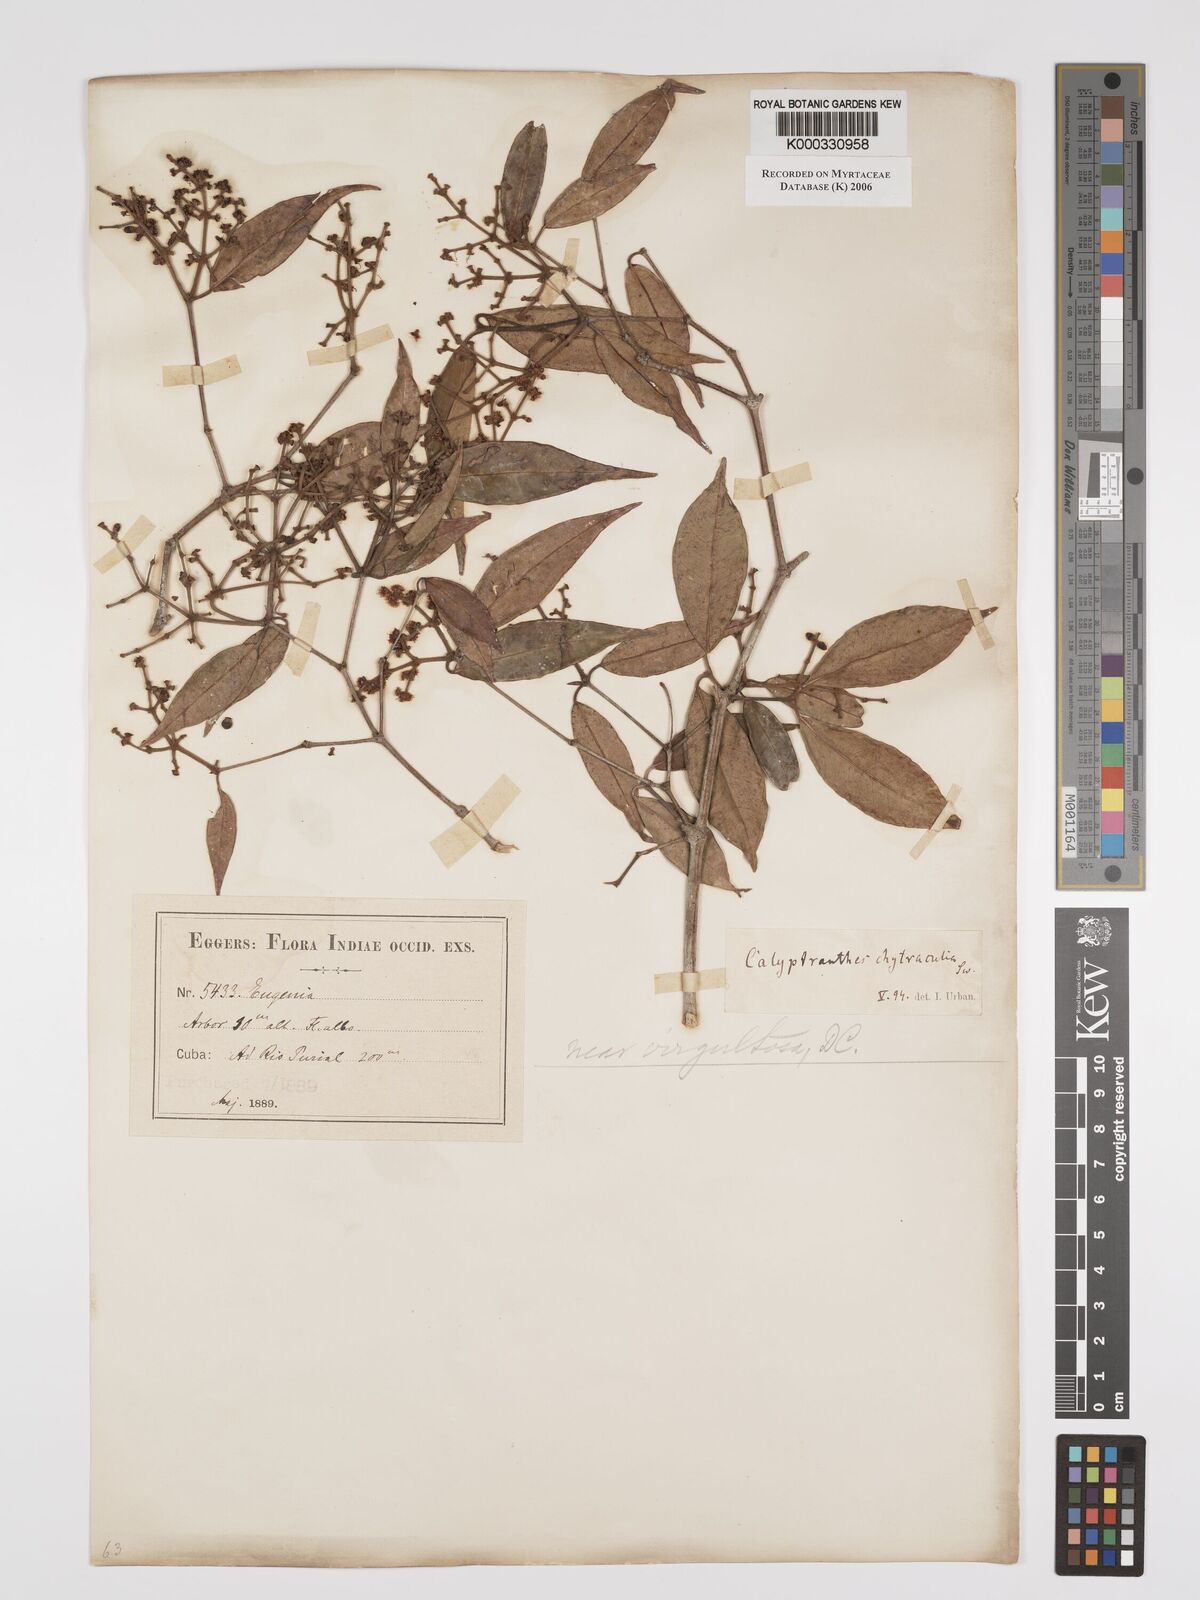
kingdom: Plantae
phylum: Tracheophyta
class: Magnoliopsida
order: Myrtales
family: Myrtaceae
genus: Myrcia
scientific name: Myrcia chytraculia
